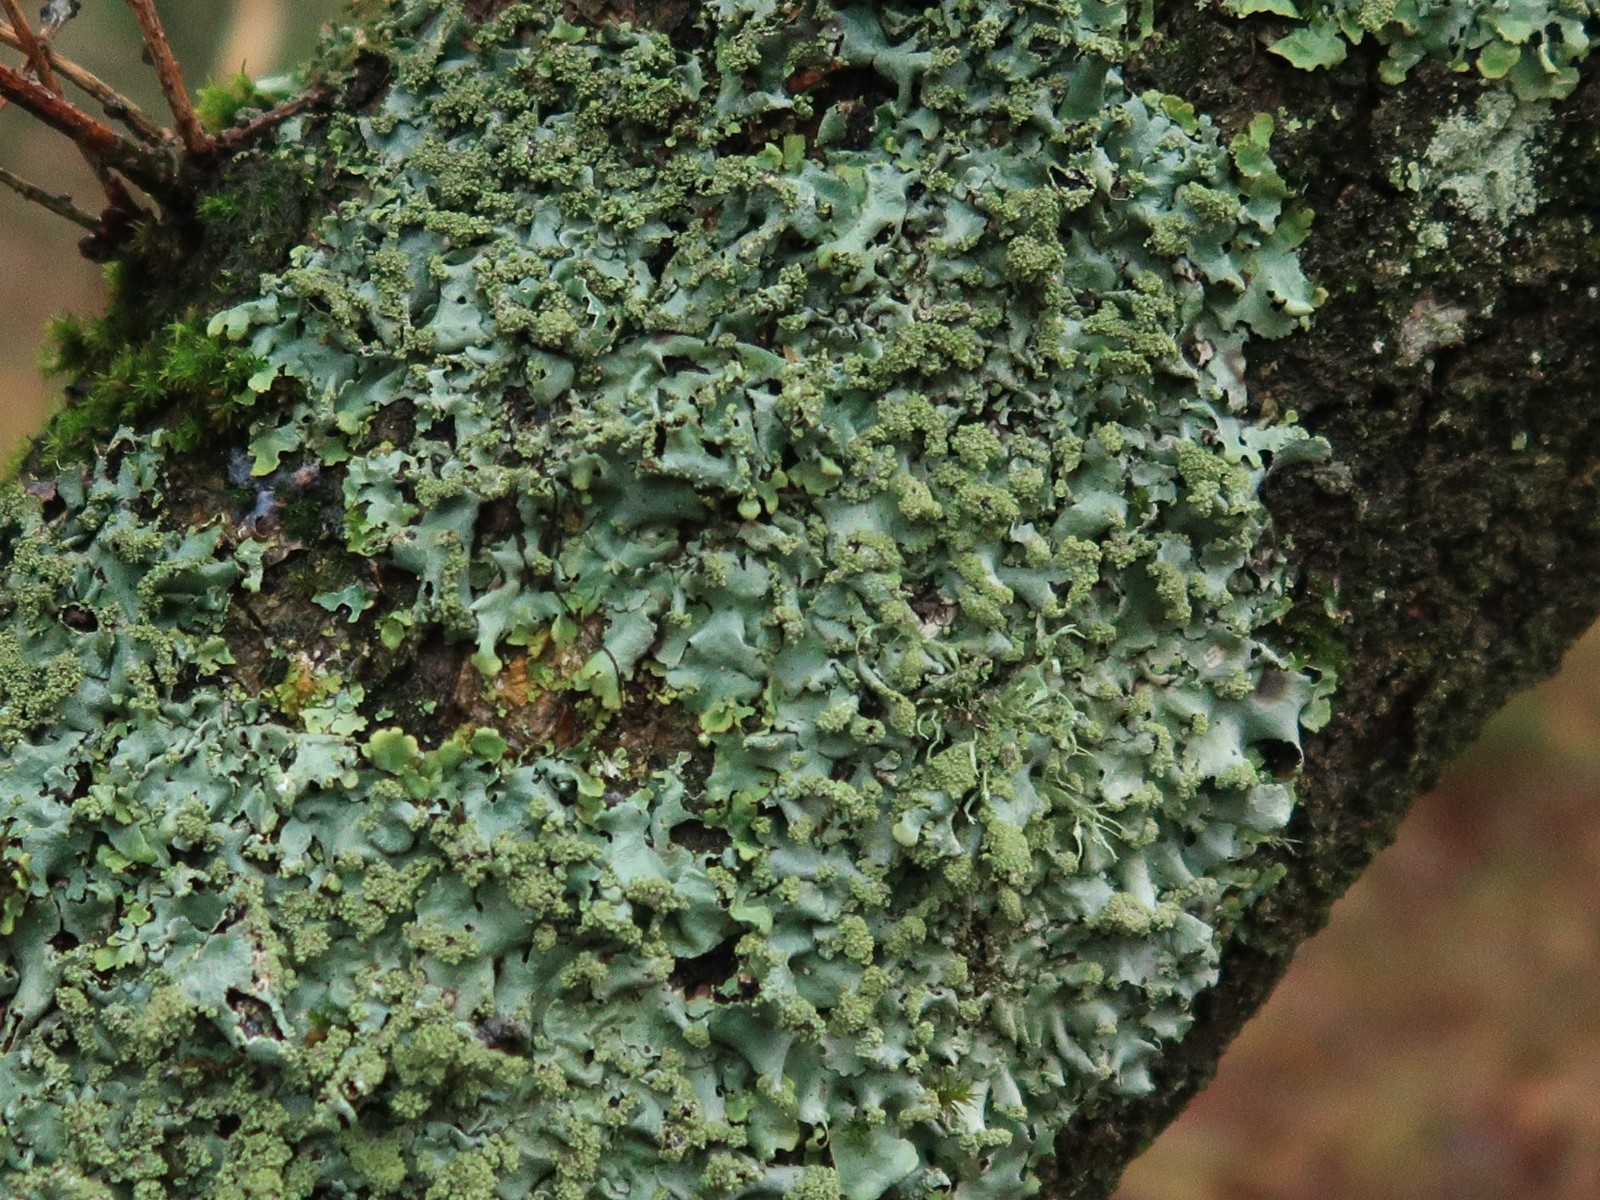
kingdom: Fungi
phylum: Ascomycota
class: Lecanoromycetes
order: Lecanorales
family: Parmeliaceae
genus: Hypotrachyna
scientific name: Hypotrachyna revoluta
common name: bleggrå skållav
